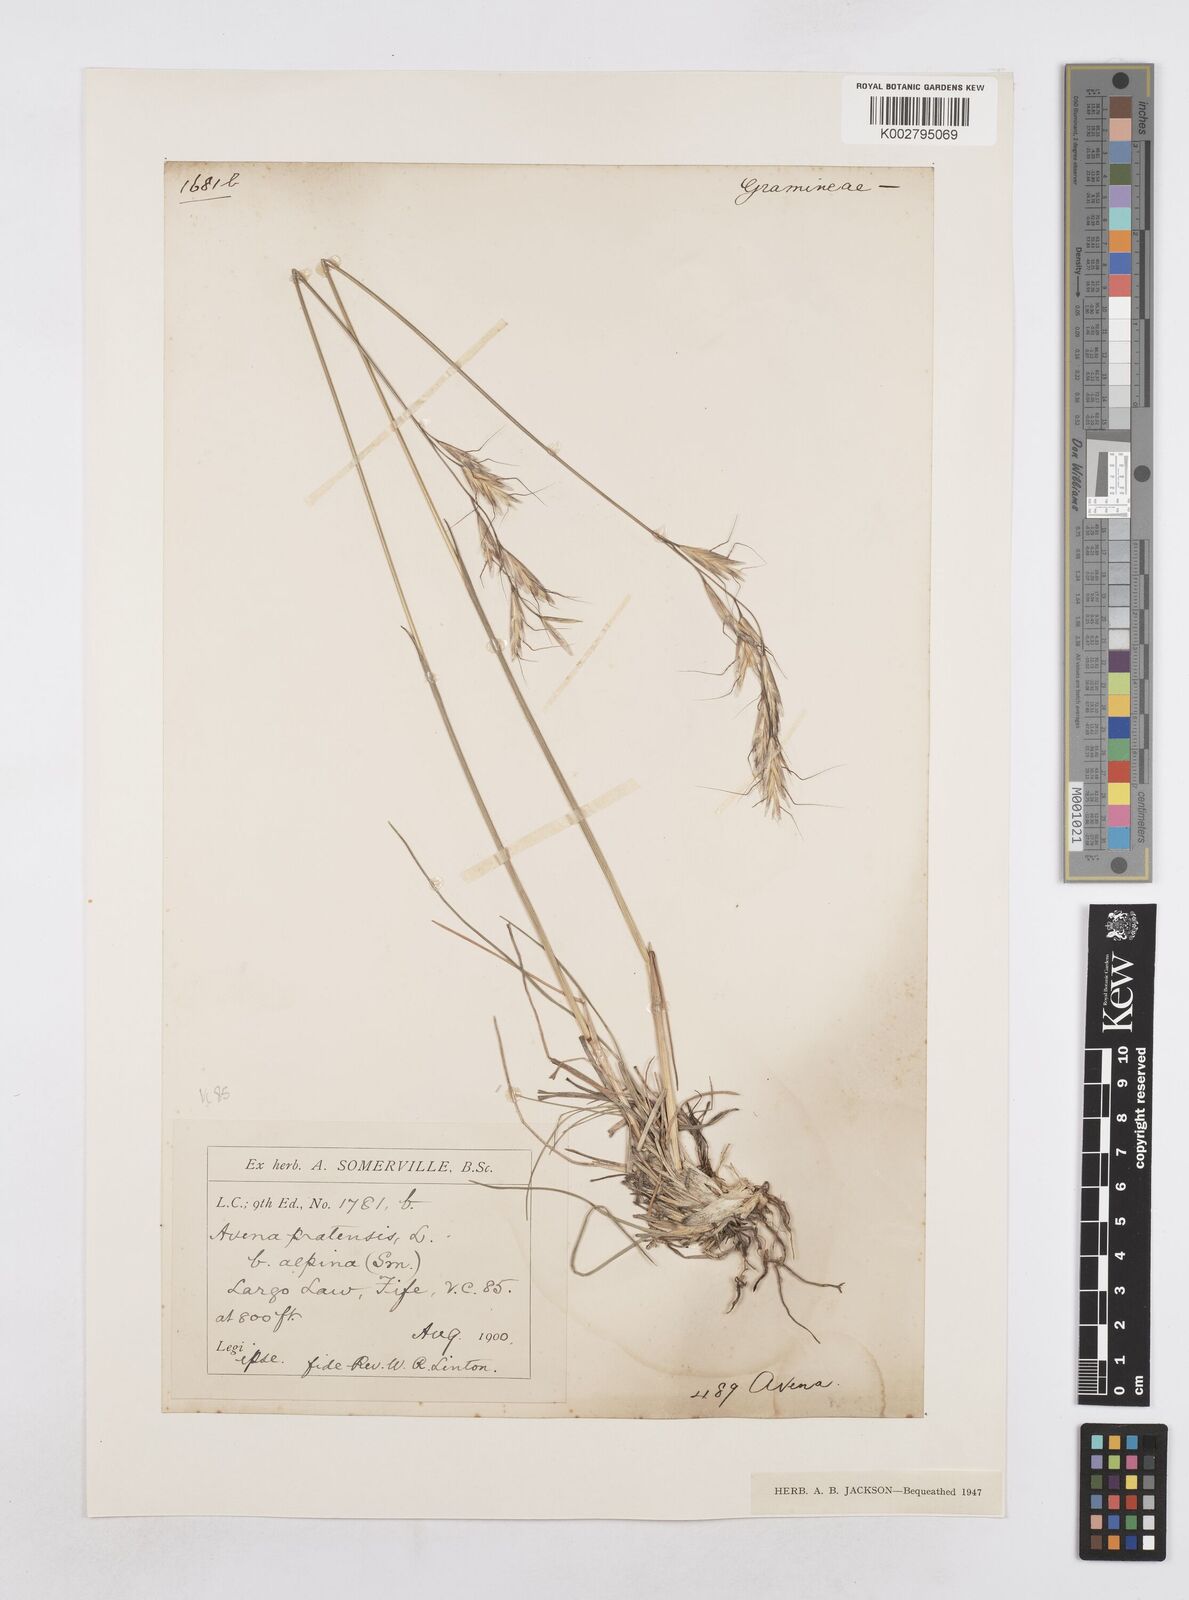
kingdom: Plantae
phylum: Tracheophyta
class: Liliopsida
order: Poales
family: Poaceae
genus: Helictotrichon
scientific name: Helictotrichon
